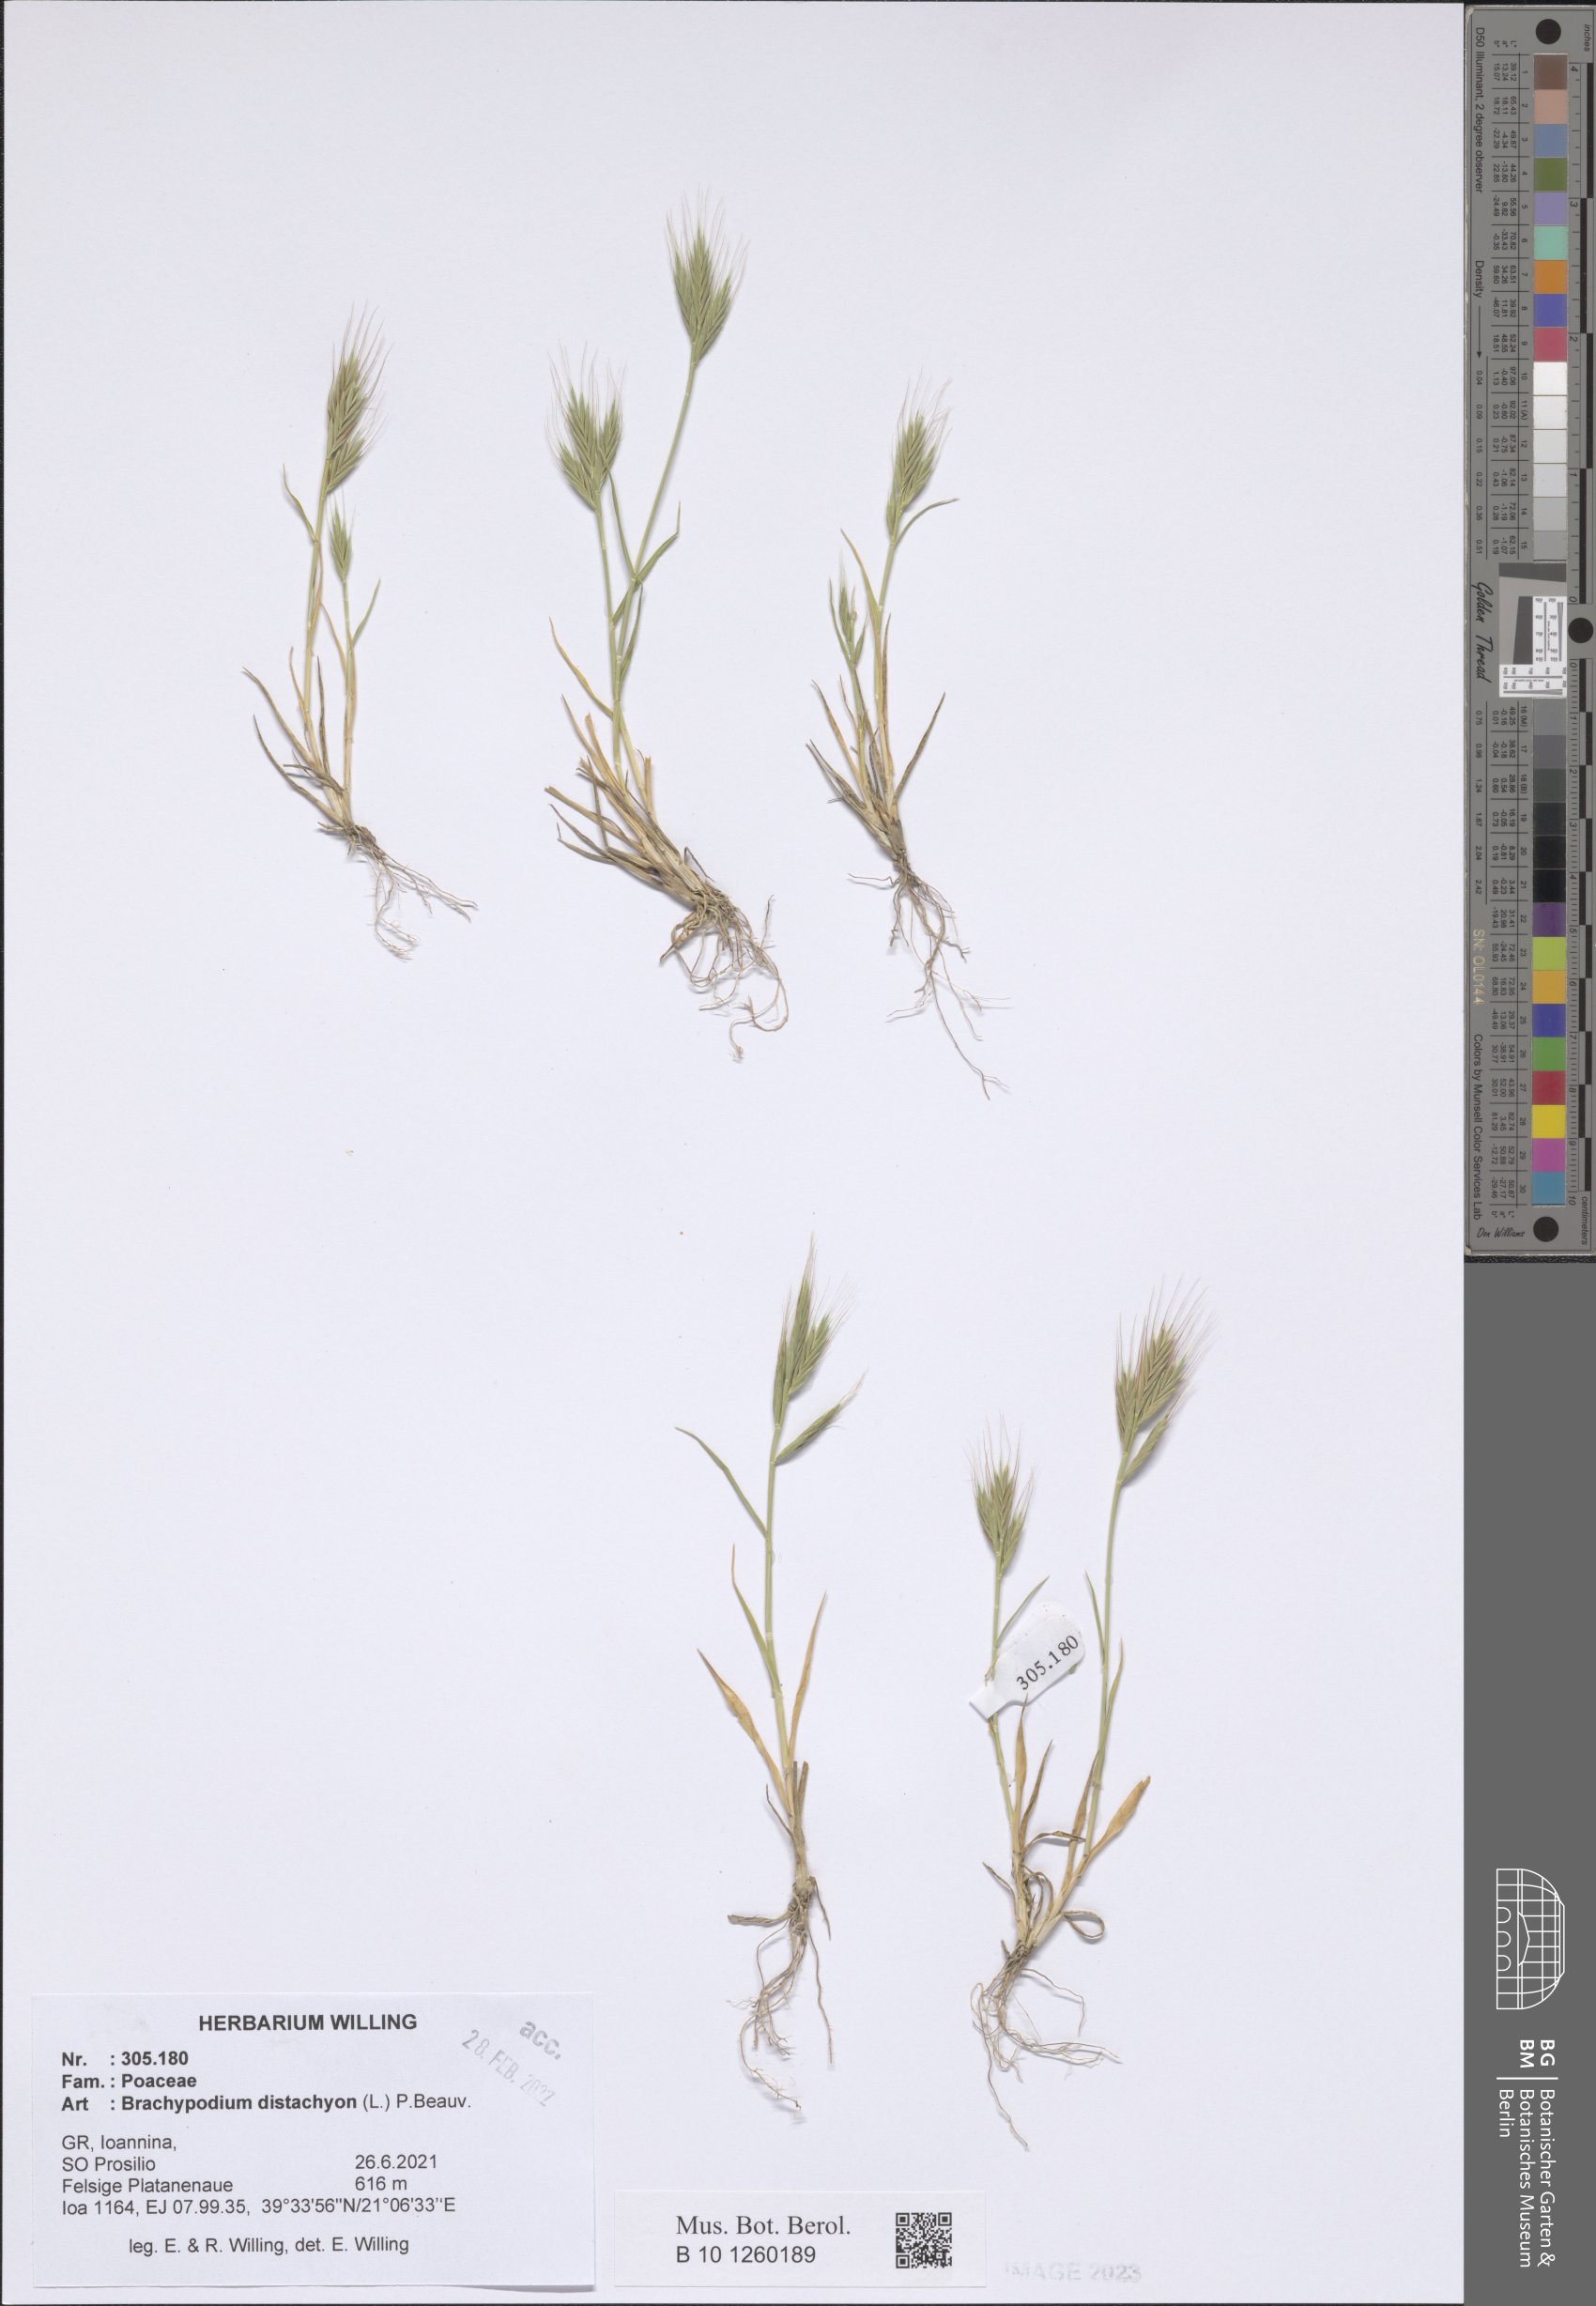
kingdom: Plantae
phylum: Tracheophyta
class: Liliopsida
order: Poales
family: Poaceae
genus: Brachypodium
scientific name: Brachypodium distachyon
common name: Stiff brome
